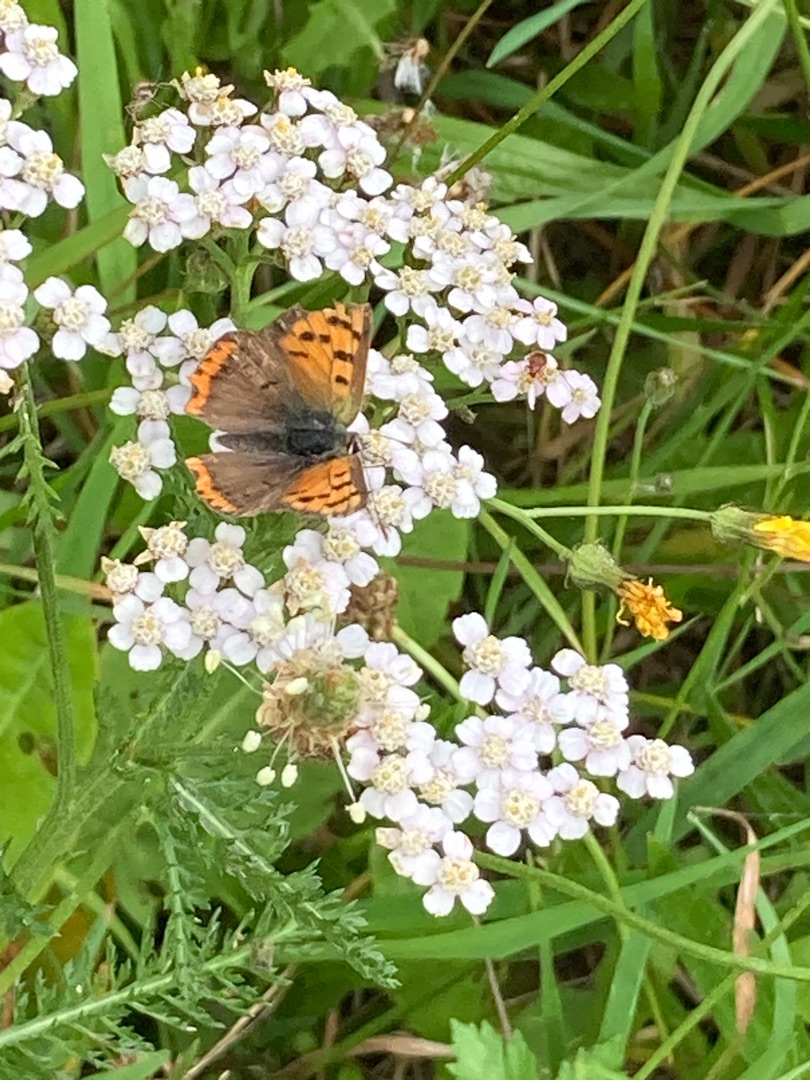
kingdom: Animalia
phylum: Arthropoda
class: Insecta
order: Lepidoptera
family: Lycaenidae
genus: Lycaena
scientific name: Lycaena phlaeas
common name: Lille ildfugl
